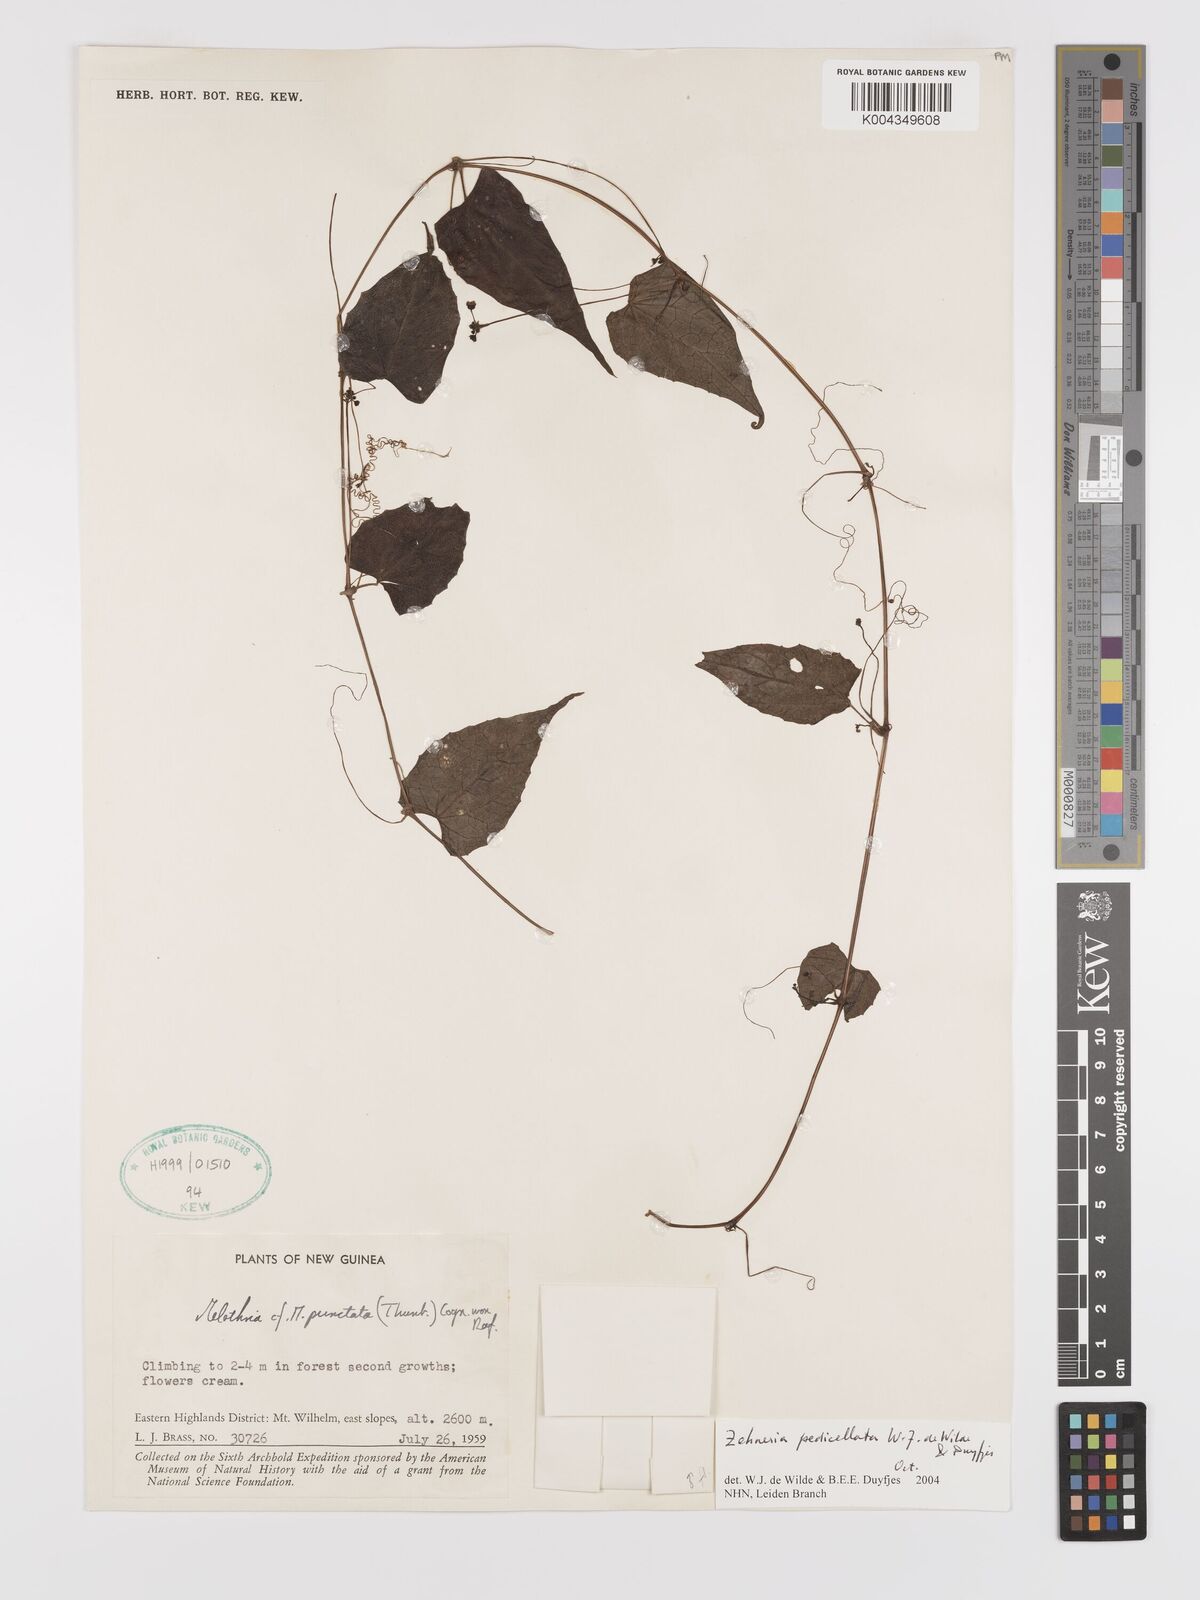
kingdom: Plantae
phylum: Tracheophyta
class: Magnoliopsida
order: Cucurbitales
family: Cucurbitaceae
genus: Zehneria
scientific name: Zehneria pedicellata
